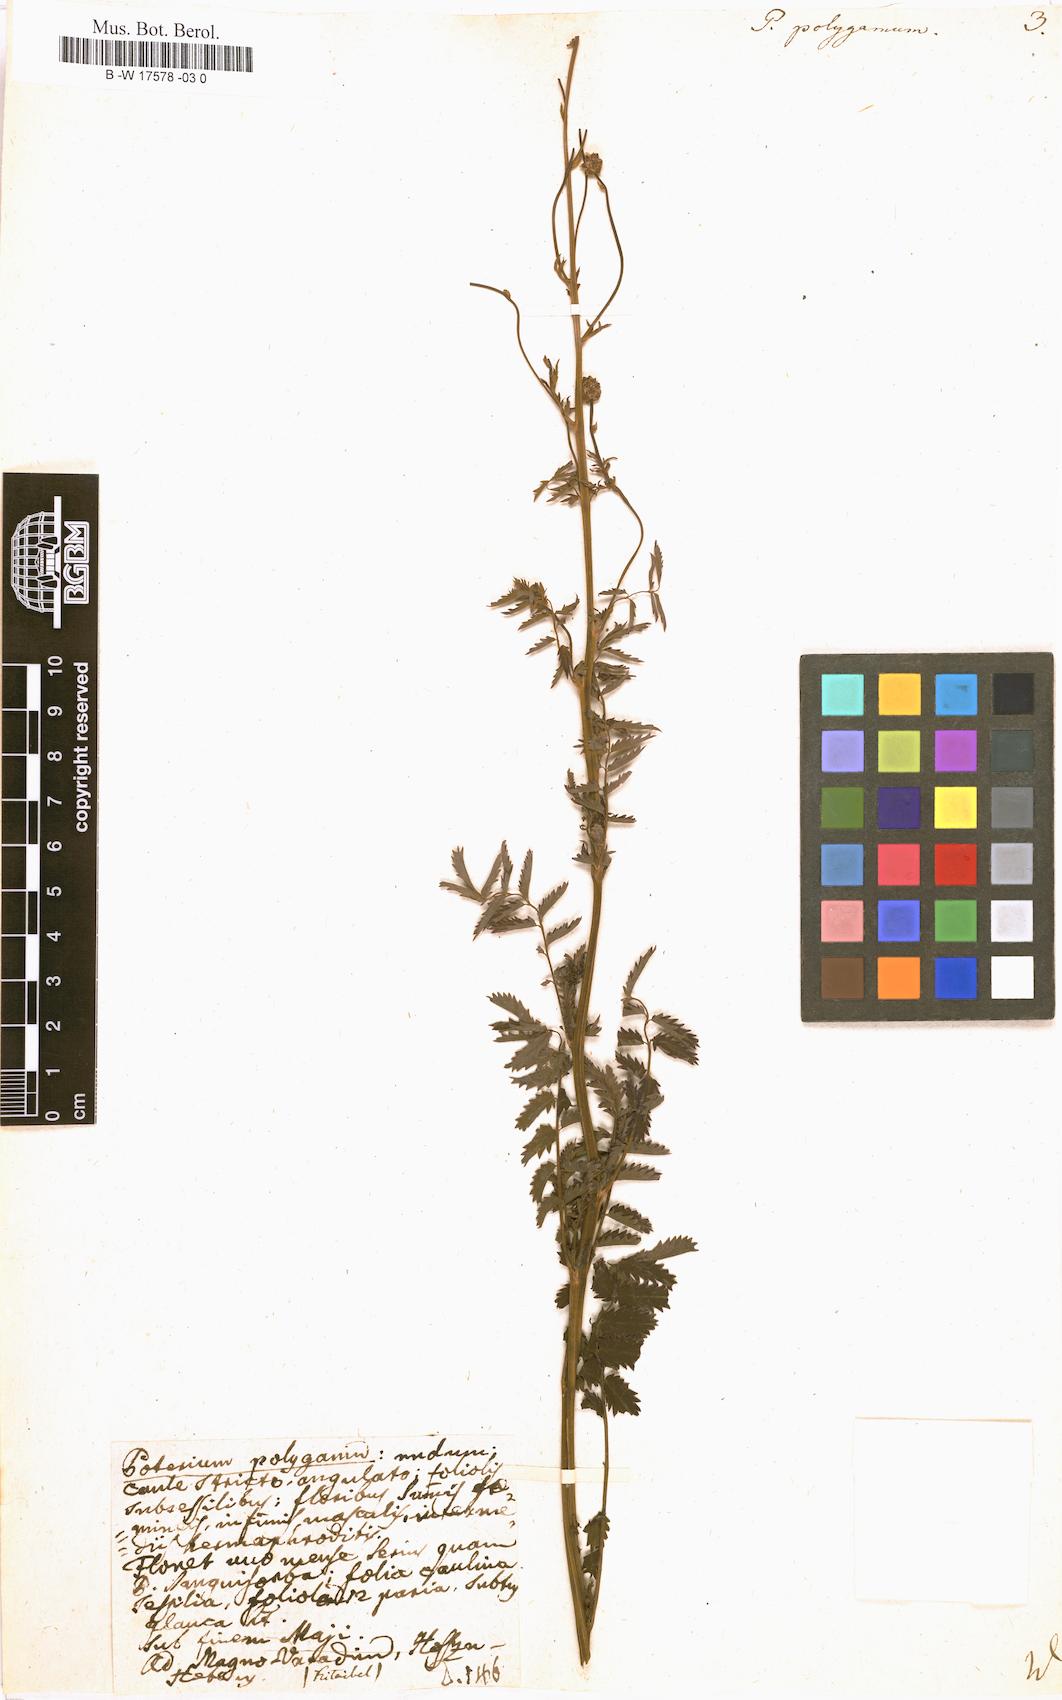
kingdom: Plantae
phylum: Tracheophyta
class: Magnoliopsida
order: Rosales
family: Rosaceae
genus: Poterium
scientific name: Poterium sanguisorba
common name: Salad burnet
